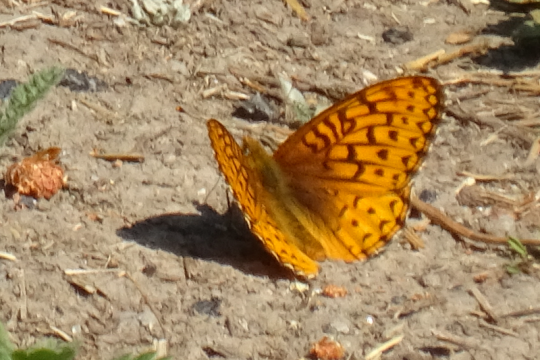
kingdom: Animalia
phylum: Arthropoda
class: Insecta
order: Lepidoptera
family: Nymphalidae
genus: Speyeria
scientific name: Speyeria callippe
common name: Callippe Fritillary
